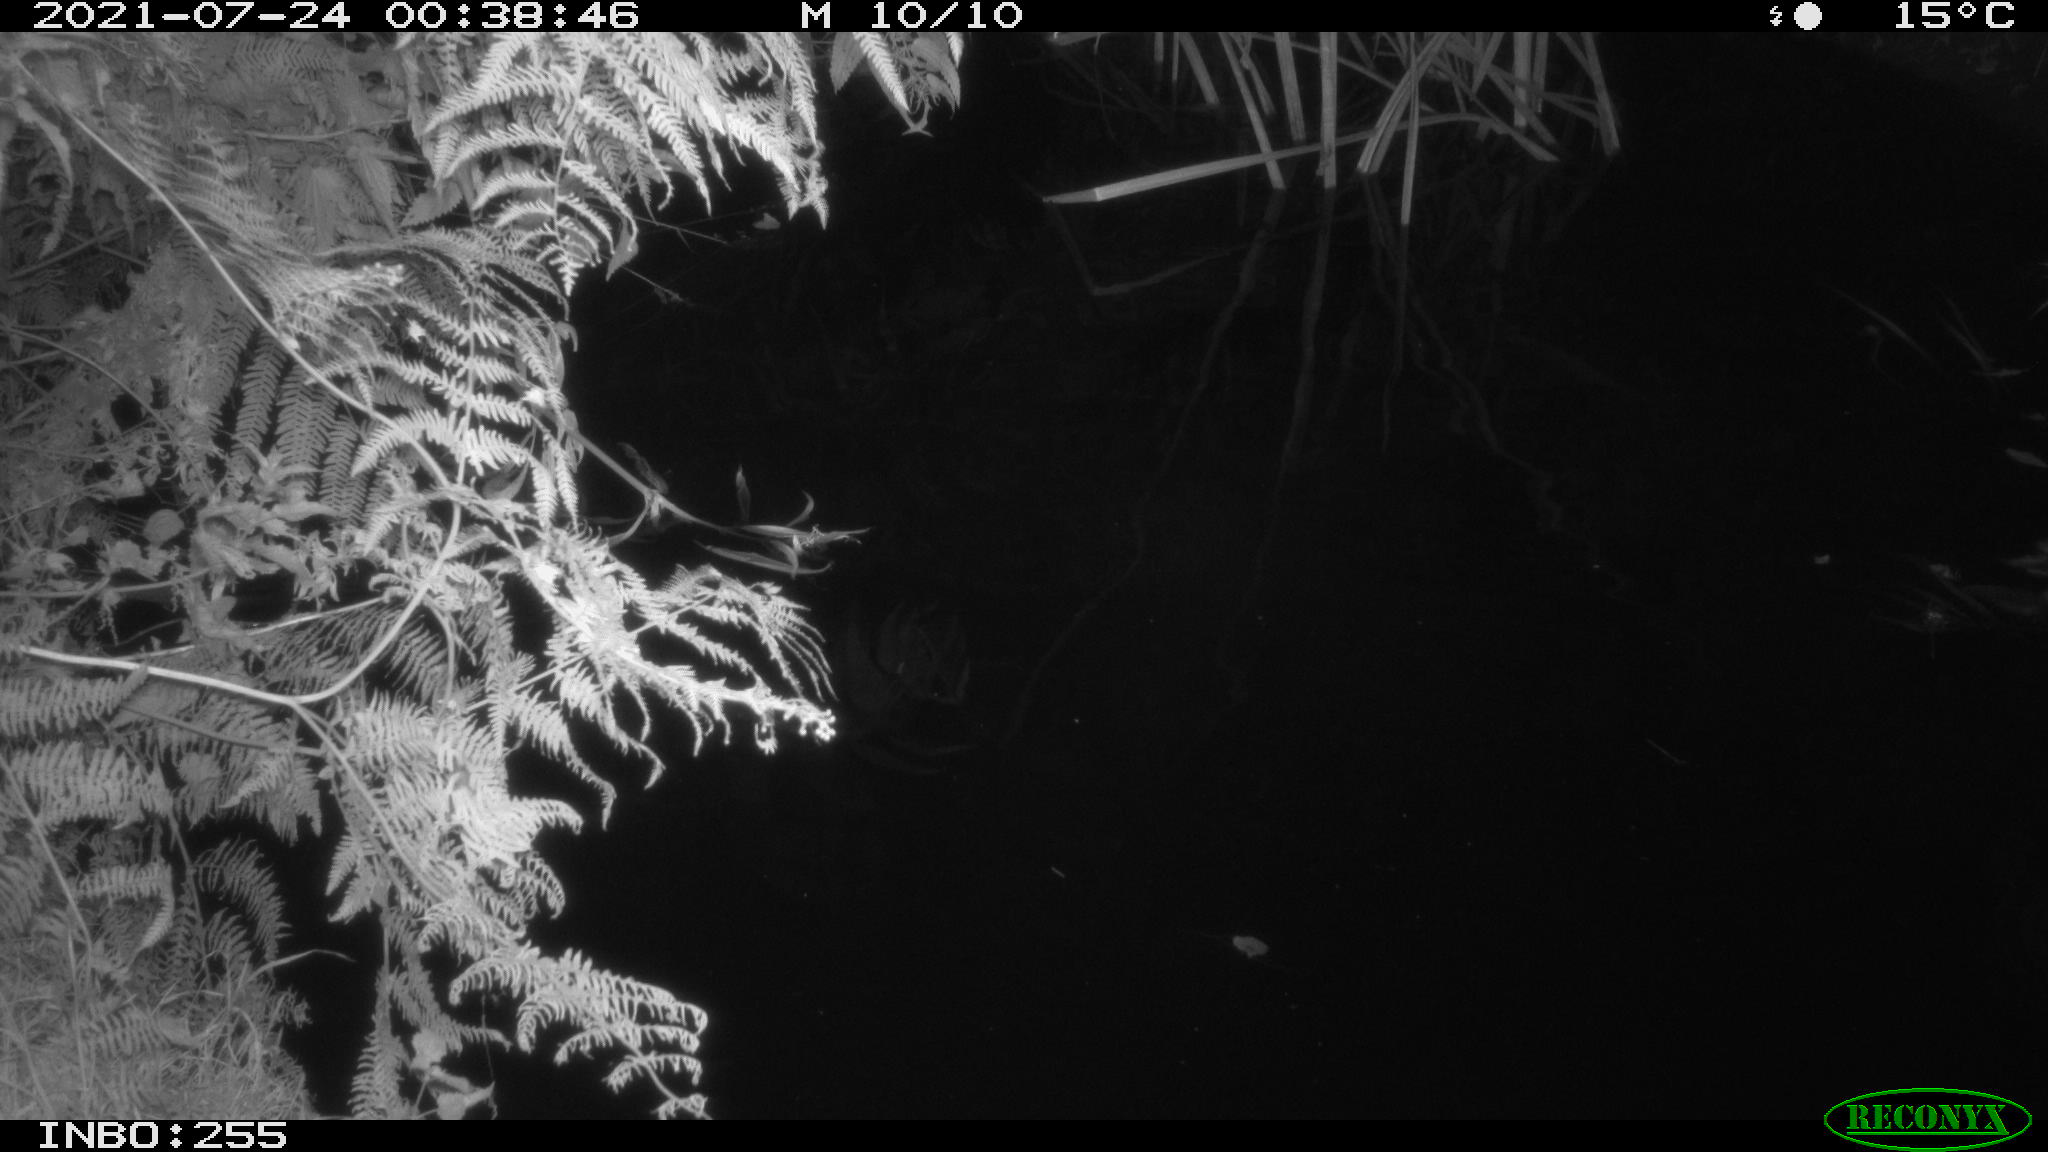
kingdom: Animalia
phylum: Chordata
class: Aves
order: Gruiformes
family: Rallidae
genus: Gallinula
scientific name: Gallinula chloropus
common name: Common moorhen
